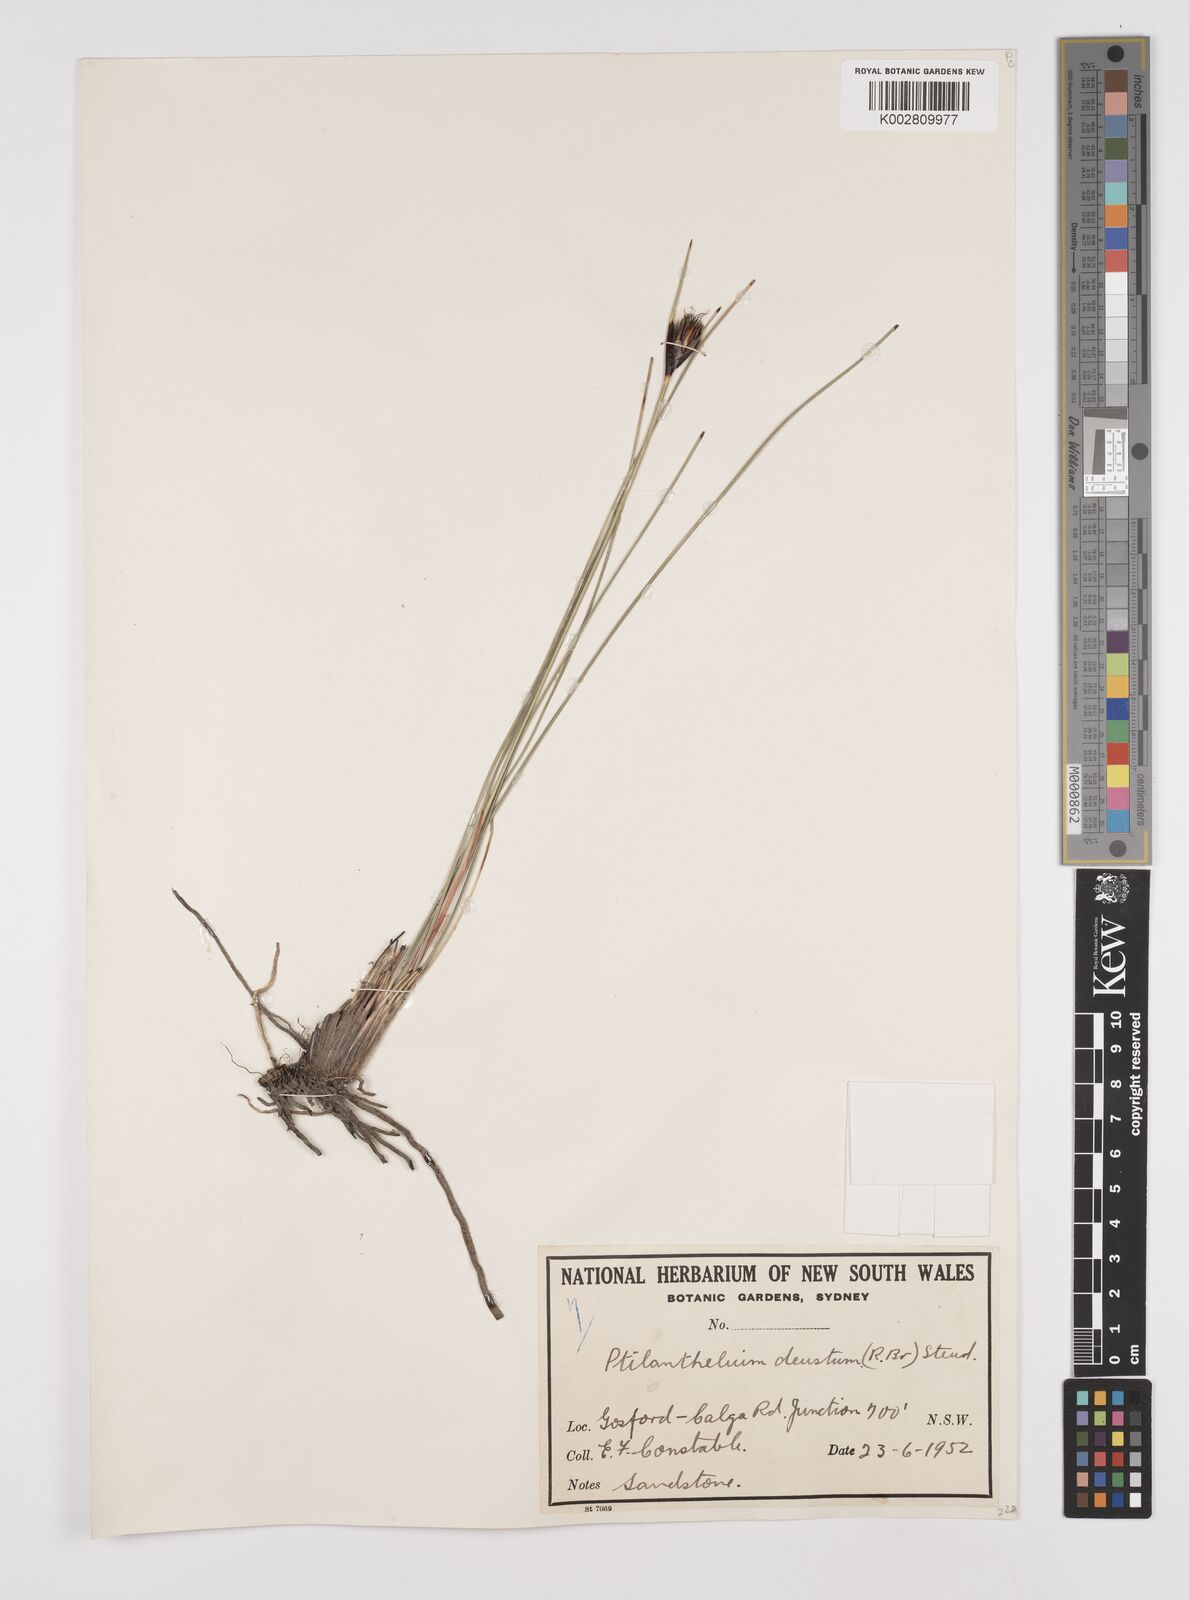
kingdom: Plantae
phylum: Tracheophyta
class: Liliopsida
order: Poales
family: Cyperaceae
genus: Ptilothrix
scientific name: Ptilothrix deusta
